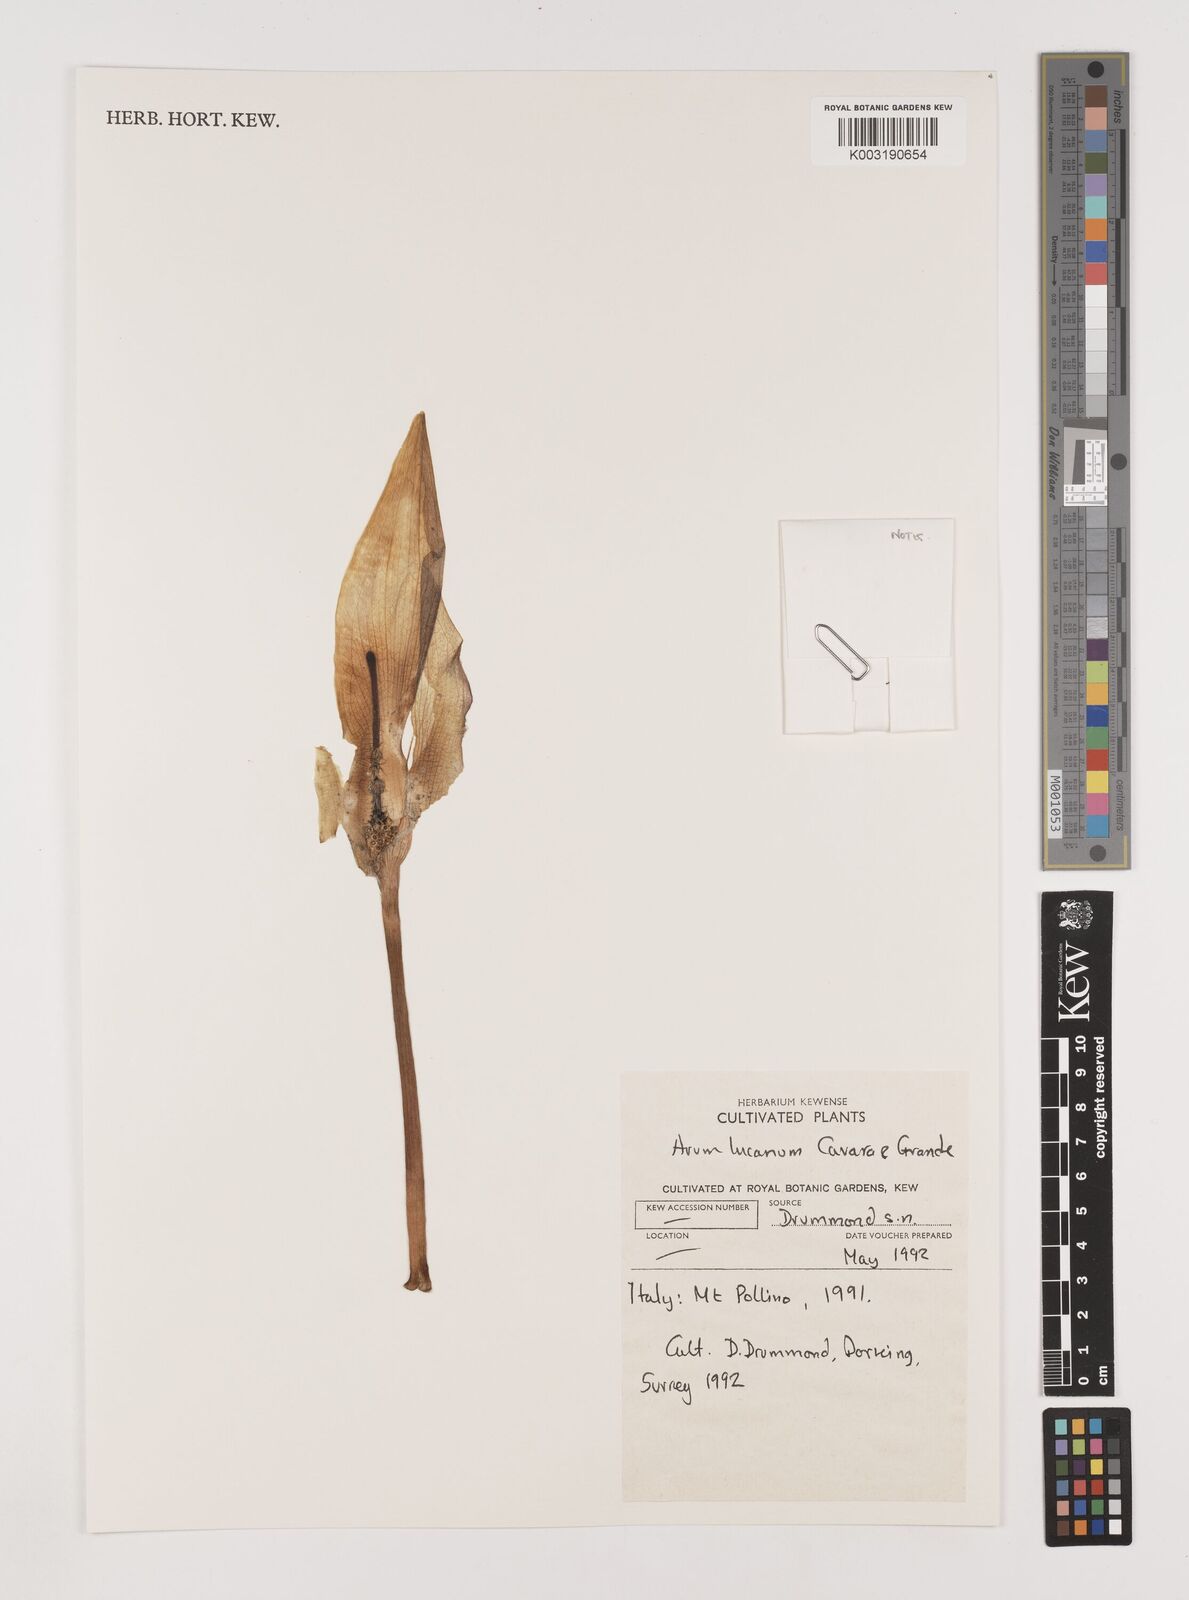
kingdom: Plantae
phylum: Tracheophyta
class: Liliopsida
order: Alismatales
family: Araceae
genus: Arum
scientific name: Arum cylindraceum
